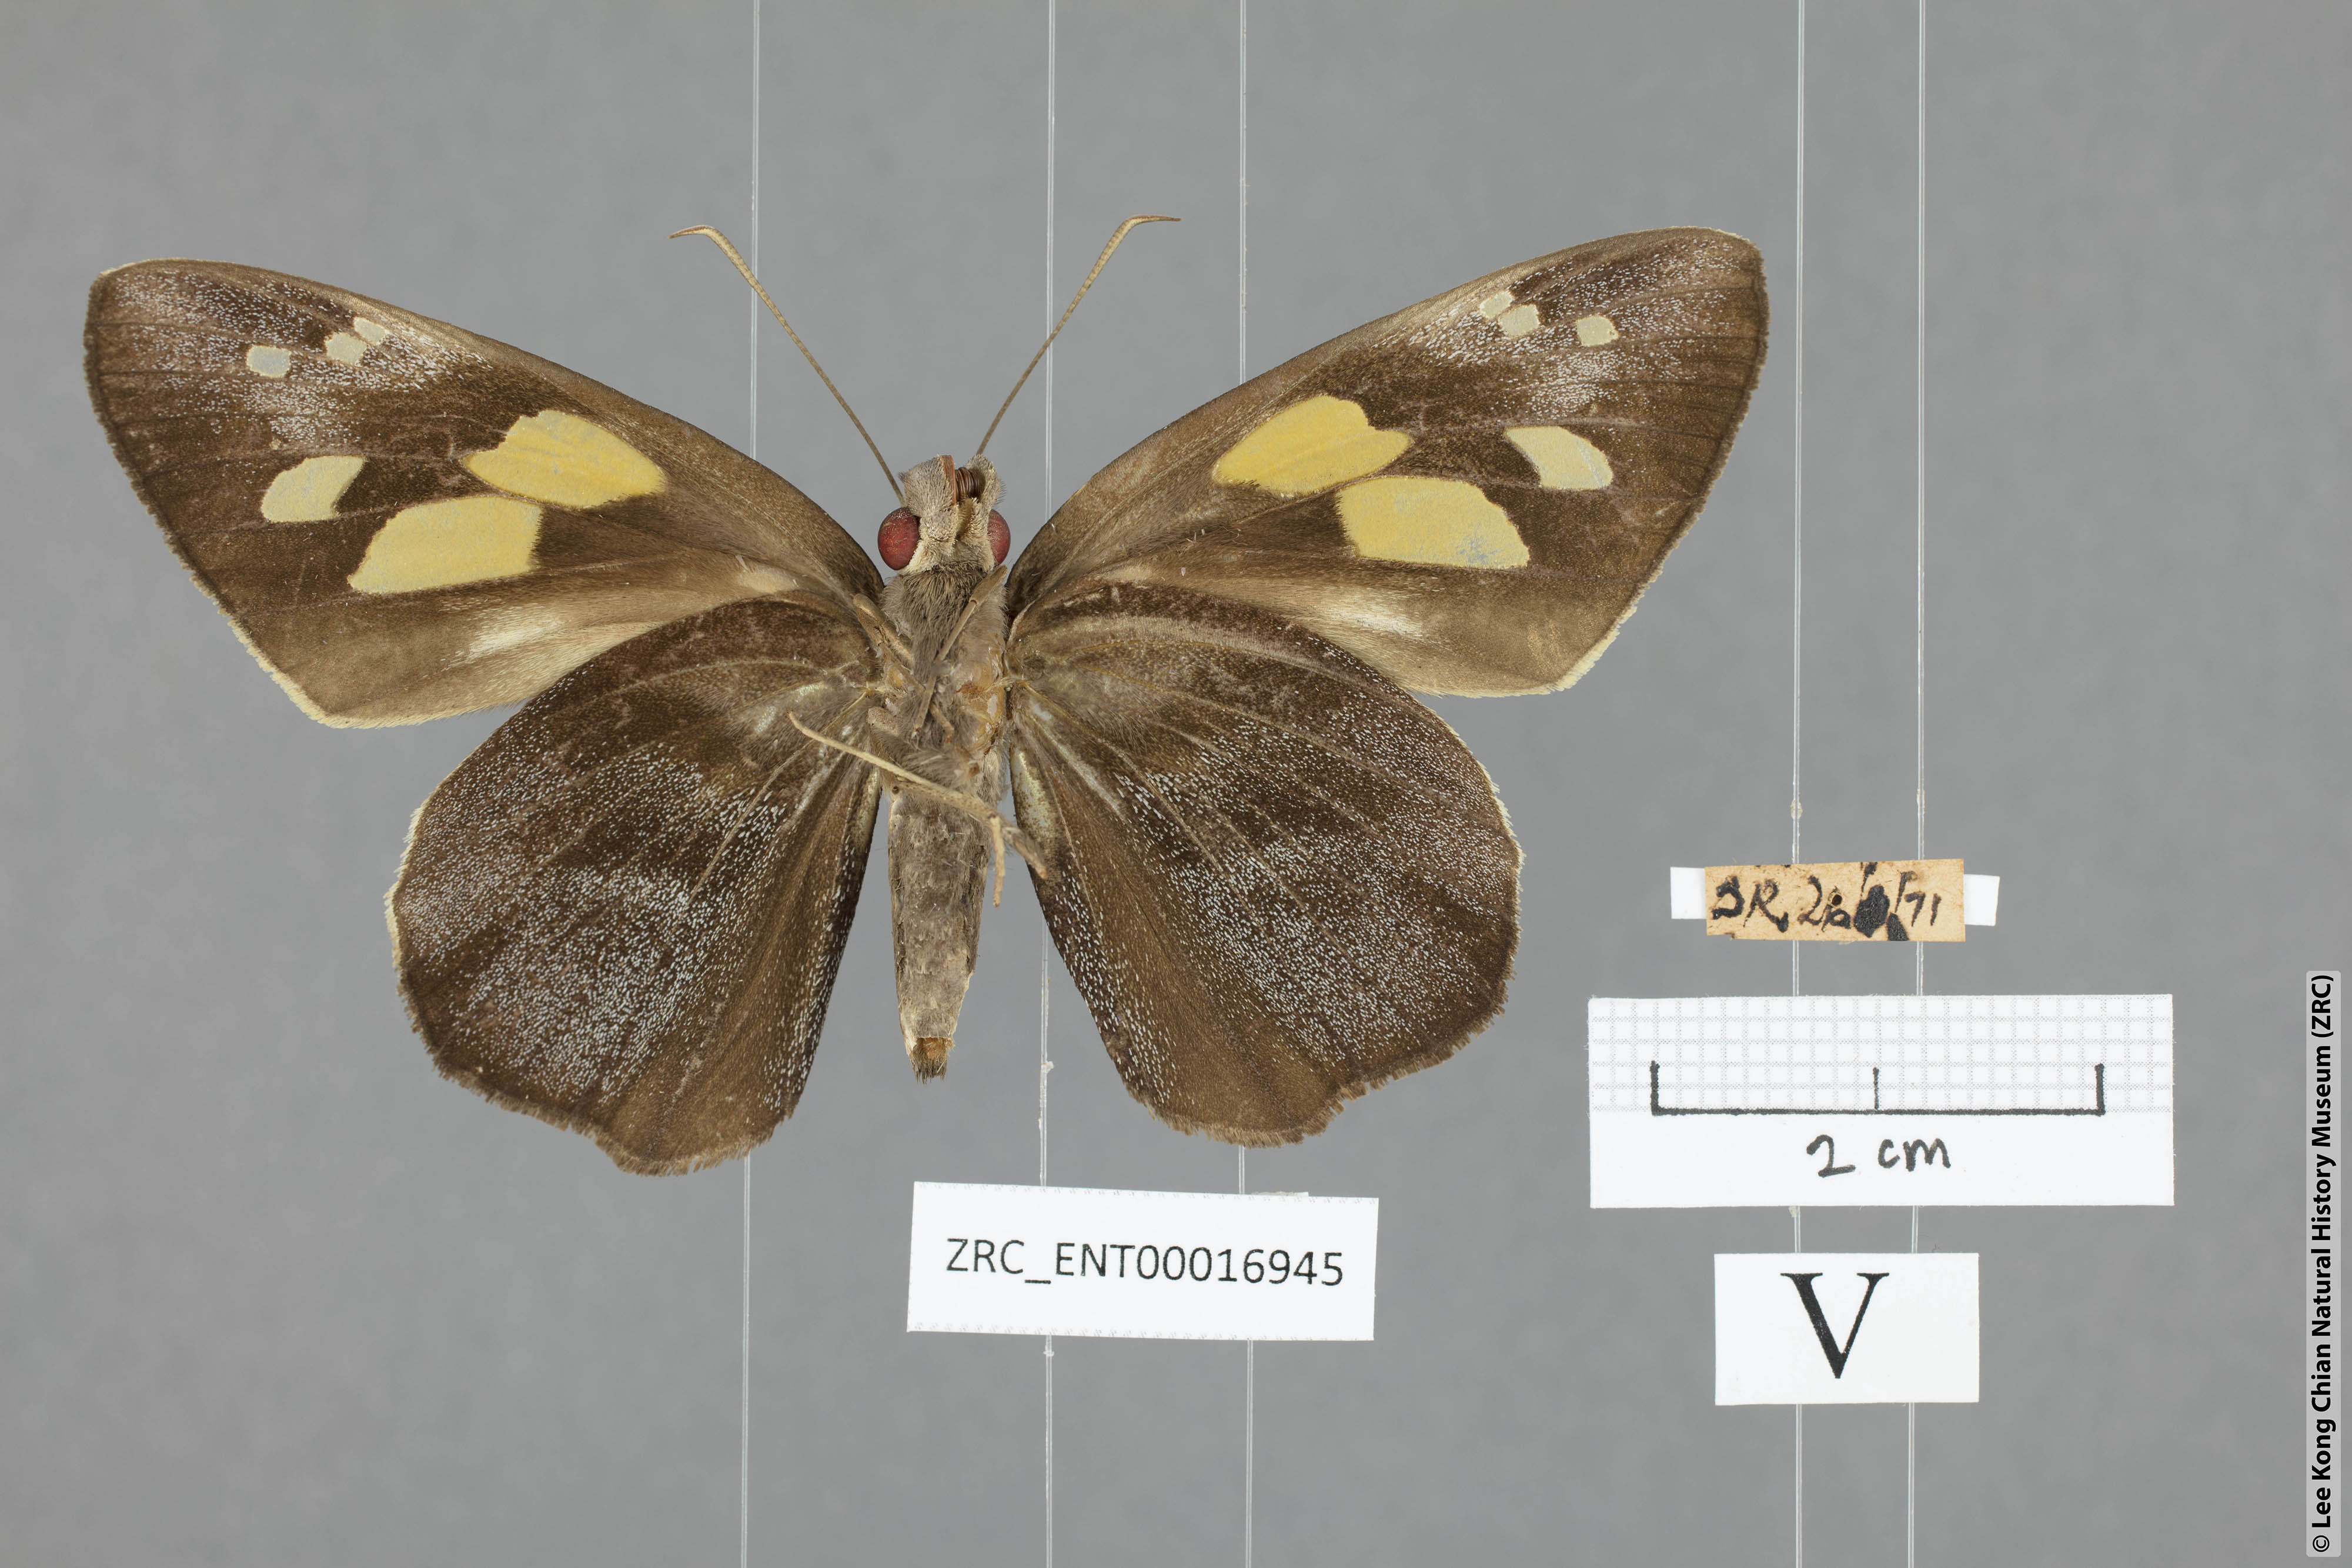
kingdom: Animalia
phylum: Arthropoda
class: Insecta
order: Lepidoptera
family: Hesperiidae
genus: Gangara
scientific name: Gangara thyrsis
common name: Giant redeye
